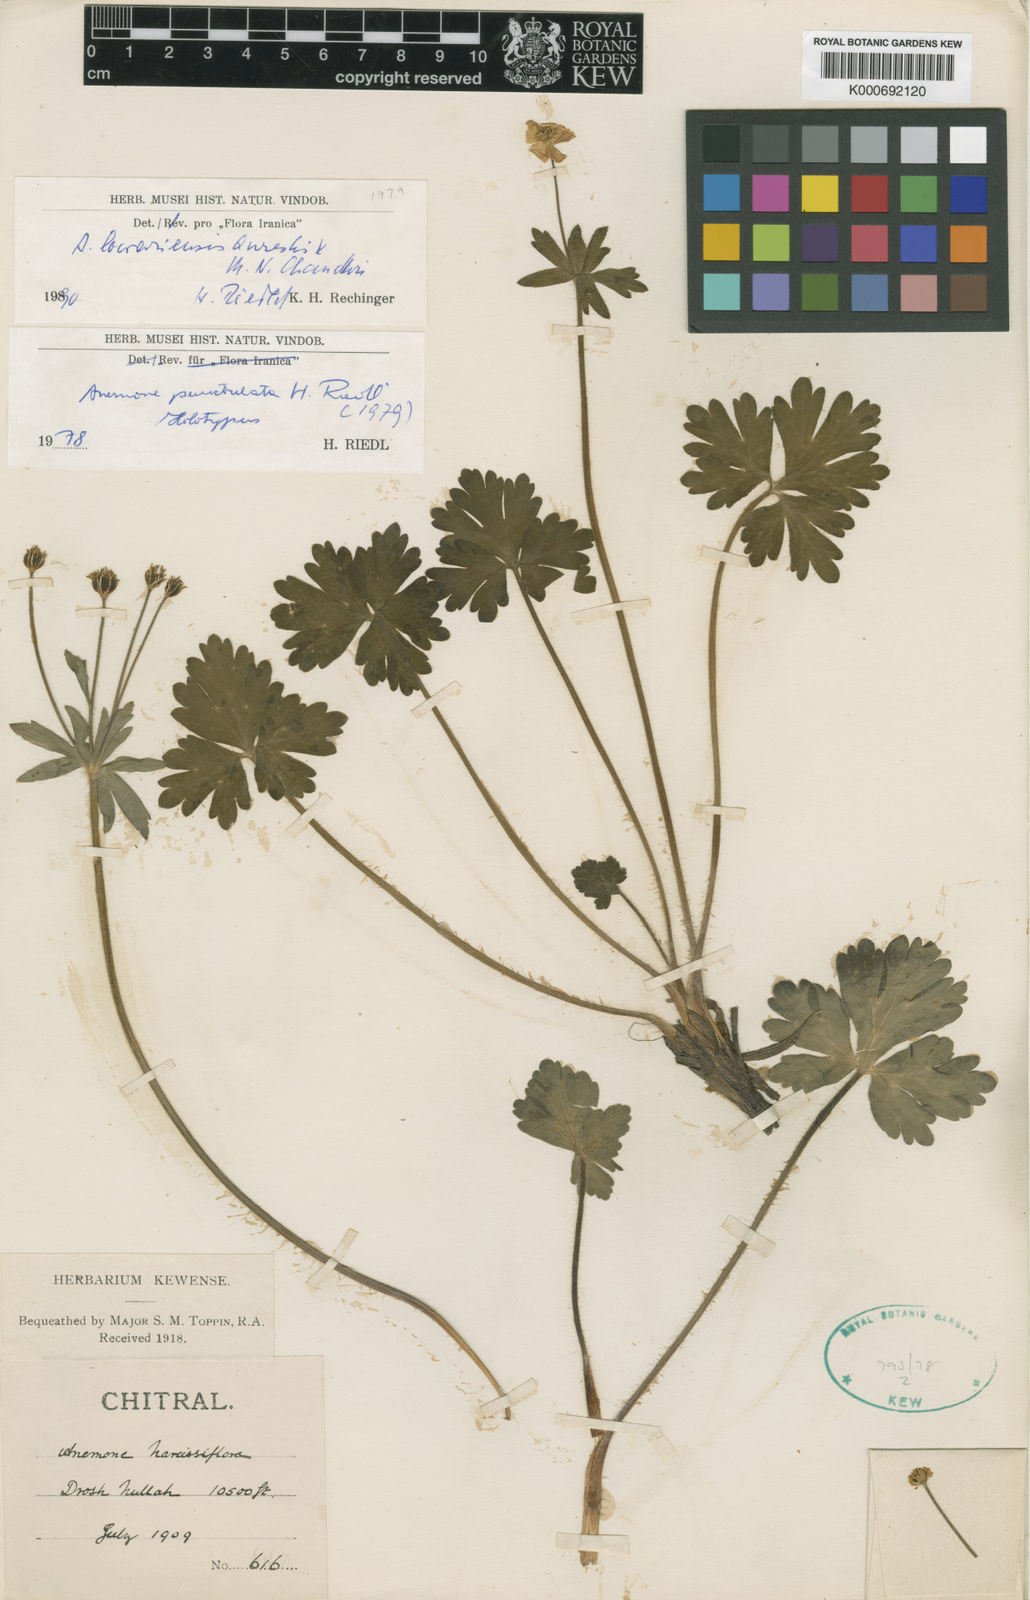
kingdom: Plantae
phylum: Tracheophyta
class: Magnoliopsida
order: Ranunculales
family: Ranunculaceae
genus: Anemonastrum
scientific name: Anemonastrum polyanthes
